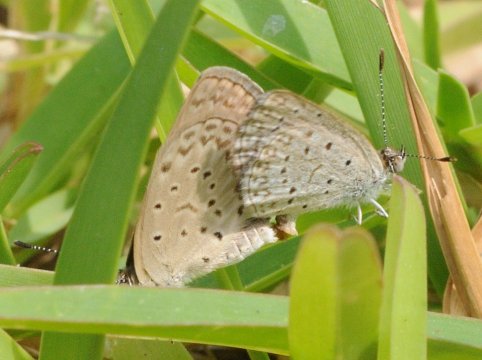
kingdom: Animalia
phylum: Arthropoda
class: Insecta
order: Lepidoptera
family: Lycaenidae
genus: Zizeeria
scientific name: Zizeeria knysna
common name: Dark Grass Blue
